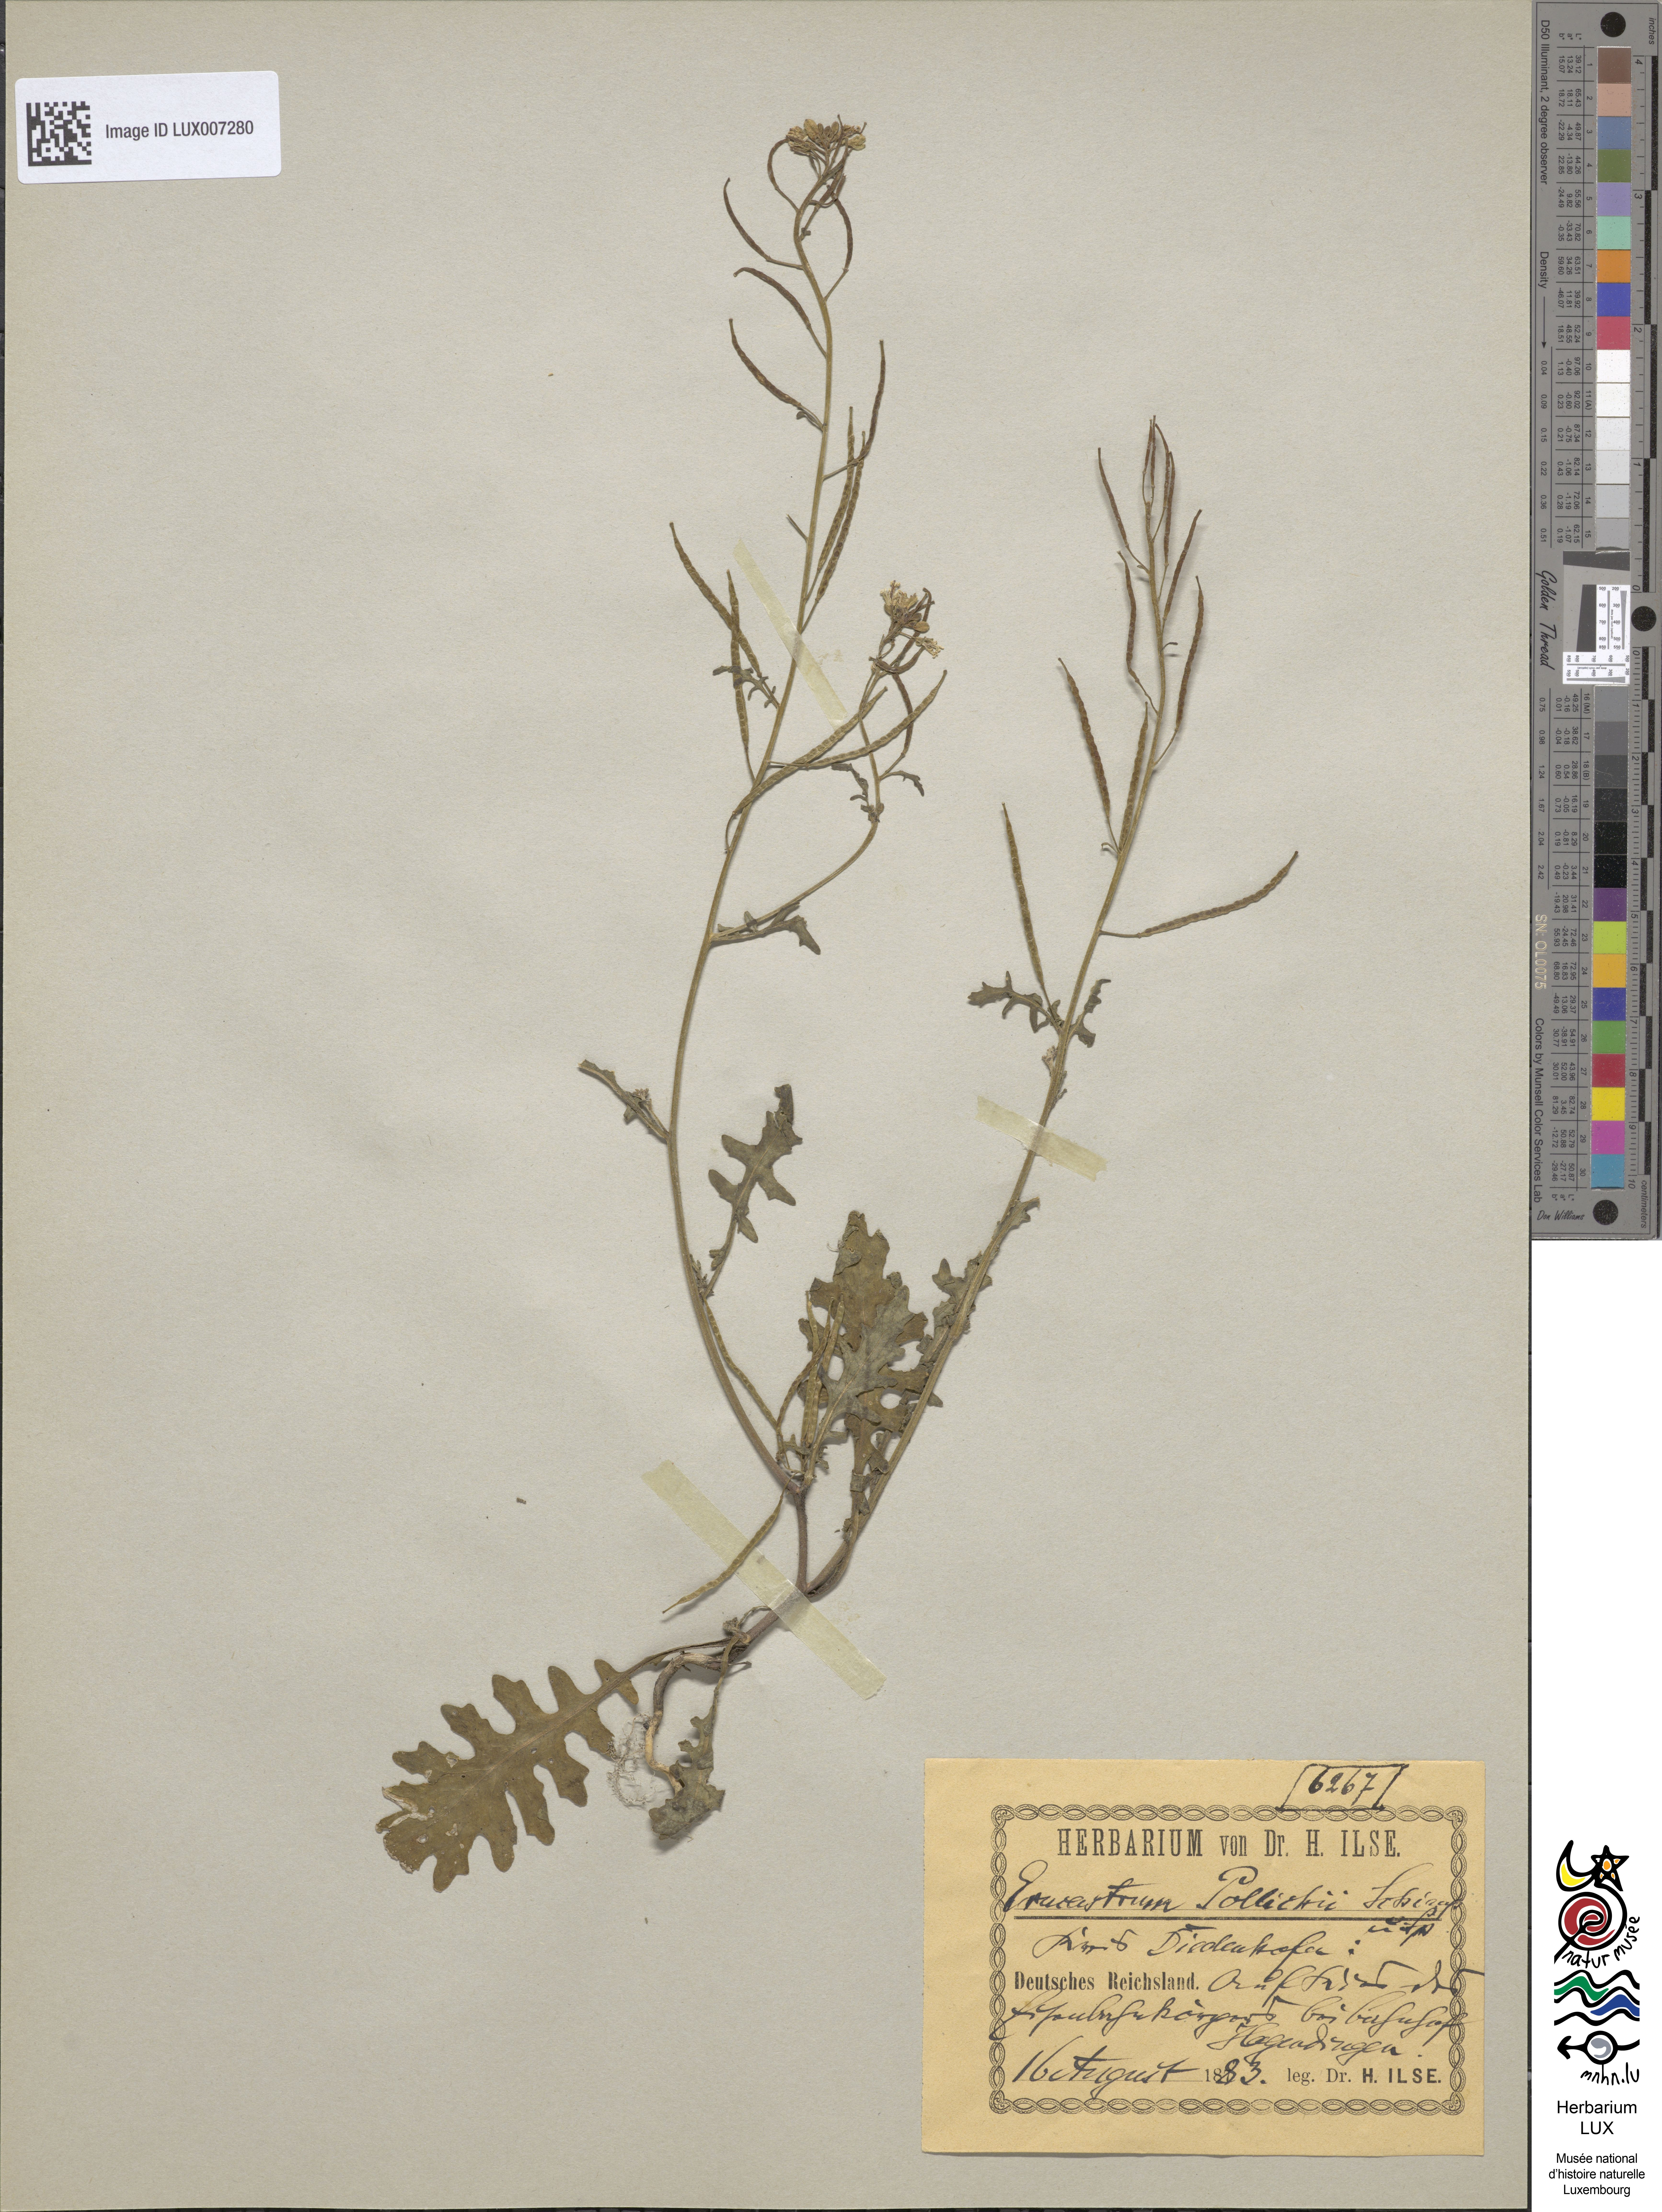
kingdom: Plantae
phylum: Tracheophyta
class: Magnoliopsida
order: Brassicales
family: Brassicaceae
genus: Erucastrum
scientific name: Erucastrum gallicum
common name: Hairy rocket
